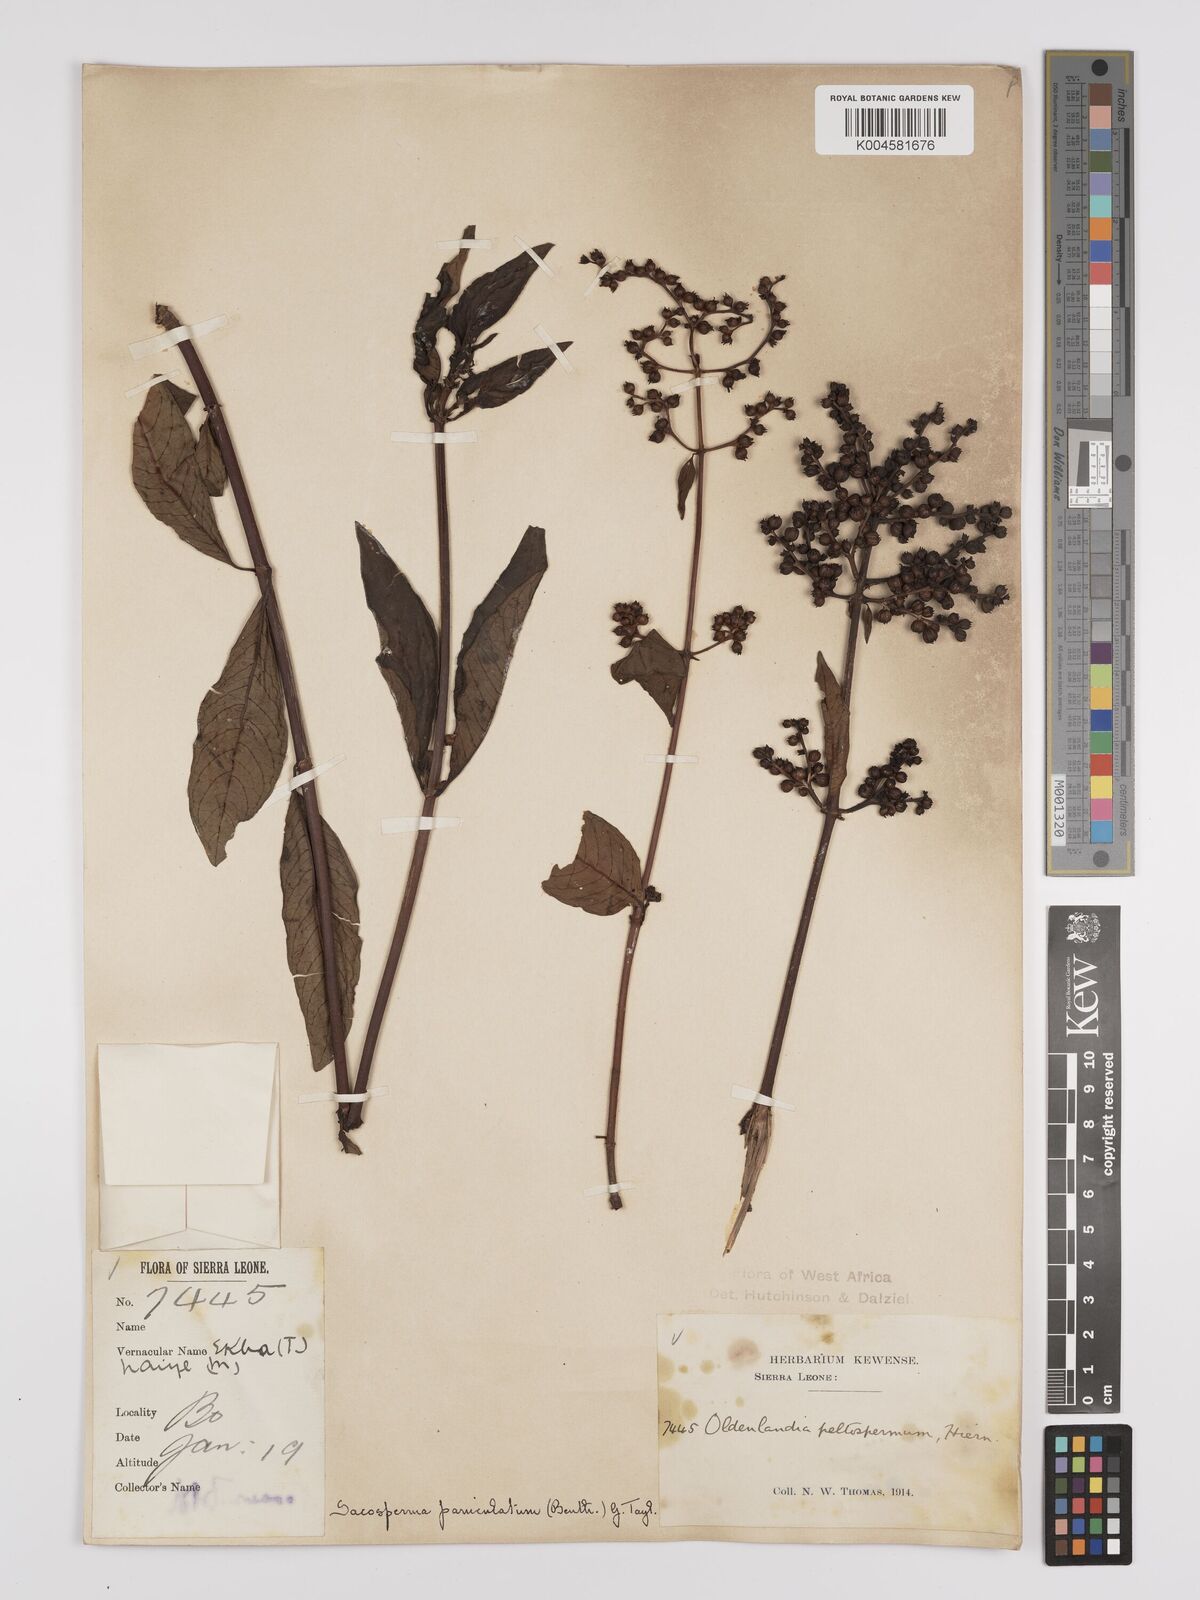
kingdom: Plantae
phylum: Tracheophyta
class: Magnoliopsida
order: Gentianales
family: Rubiaceae
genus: Sacosperma
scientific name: Sacosperma paniculatum
